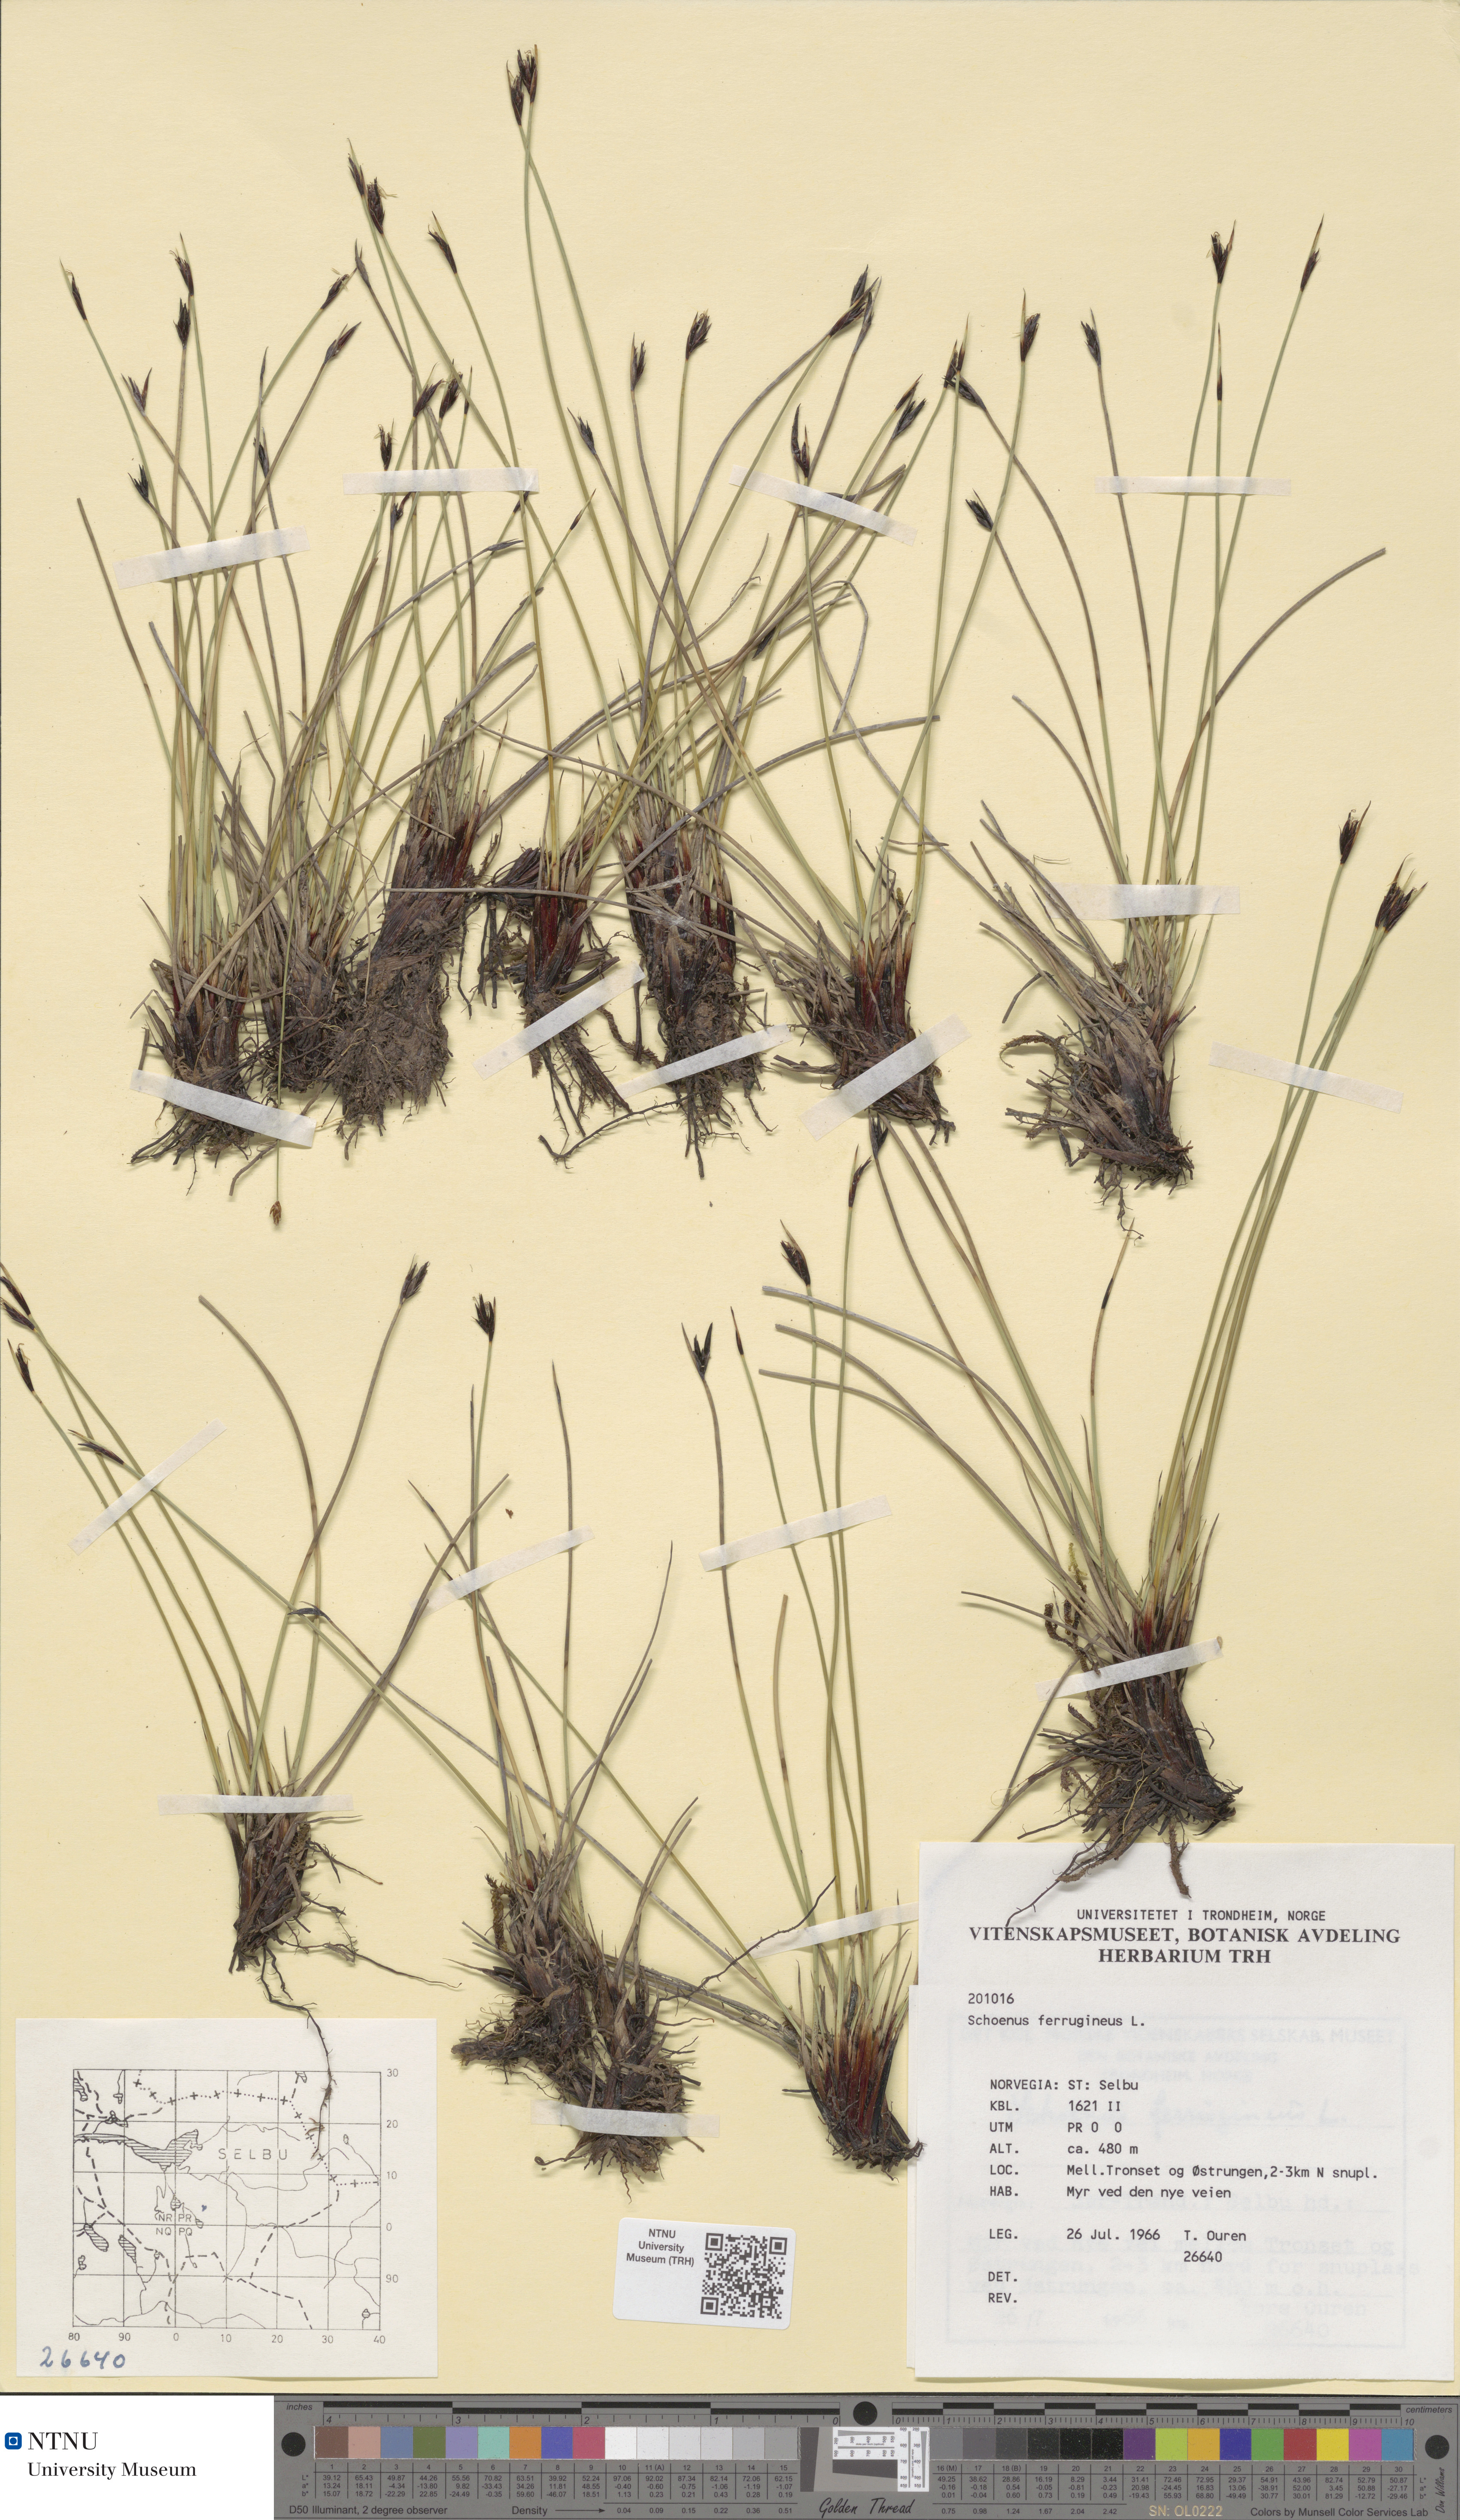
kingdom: Plantae
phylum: Tracheophyta
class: Liliopsida
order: Poales
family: Cyperaceae
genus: Schoenus
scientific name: Schoenus ferrugineus
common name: Brown bog-rush
